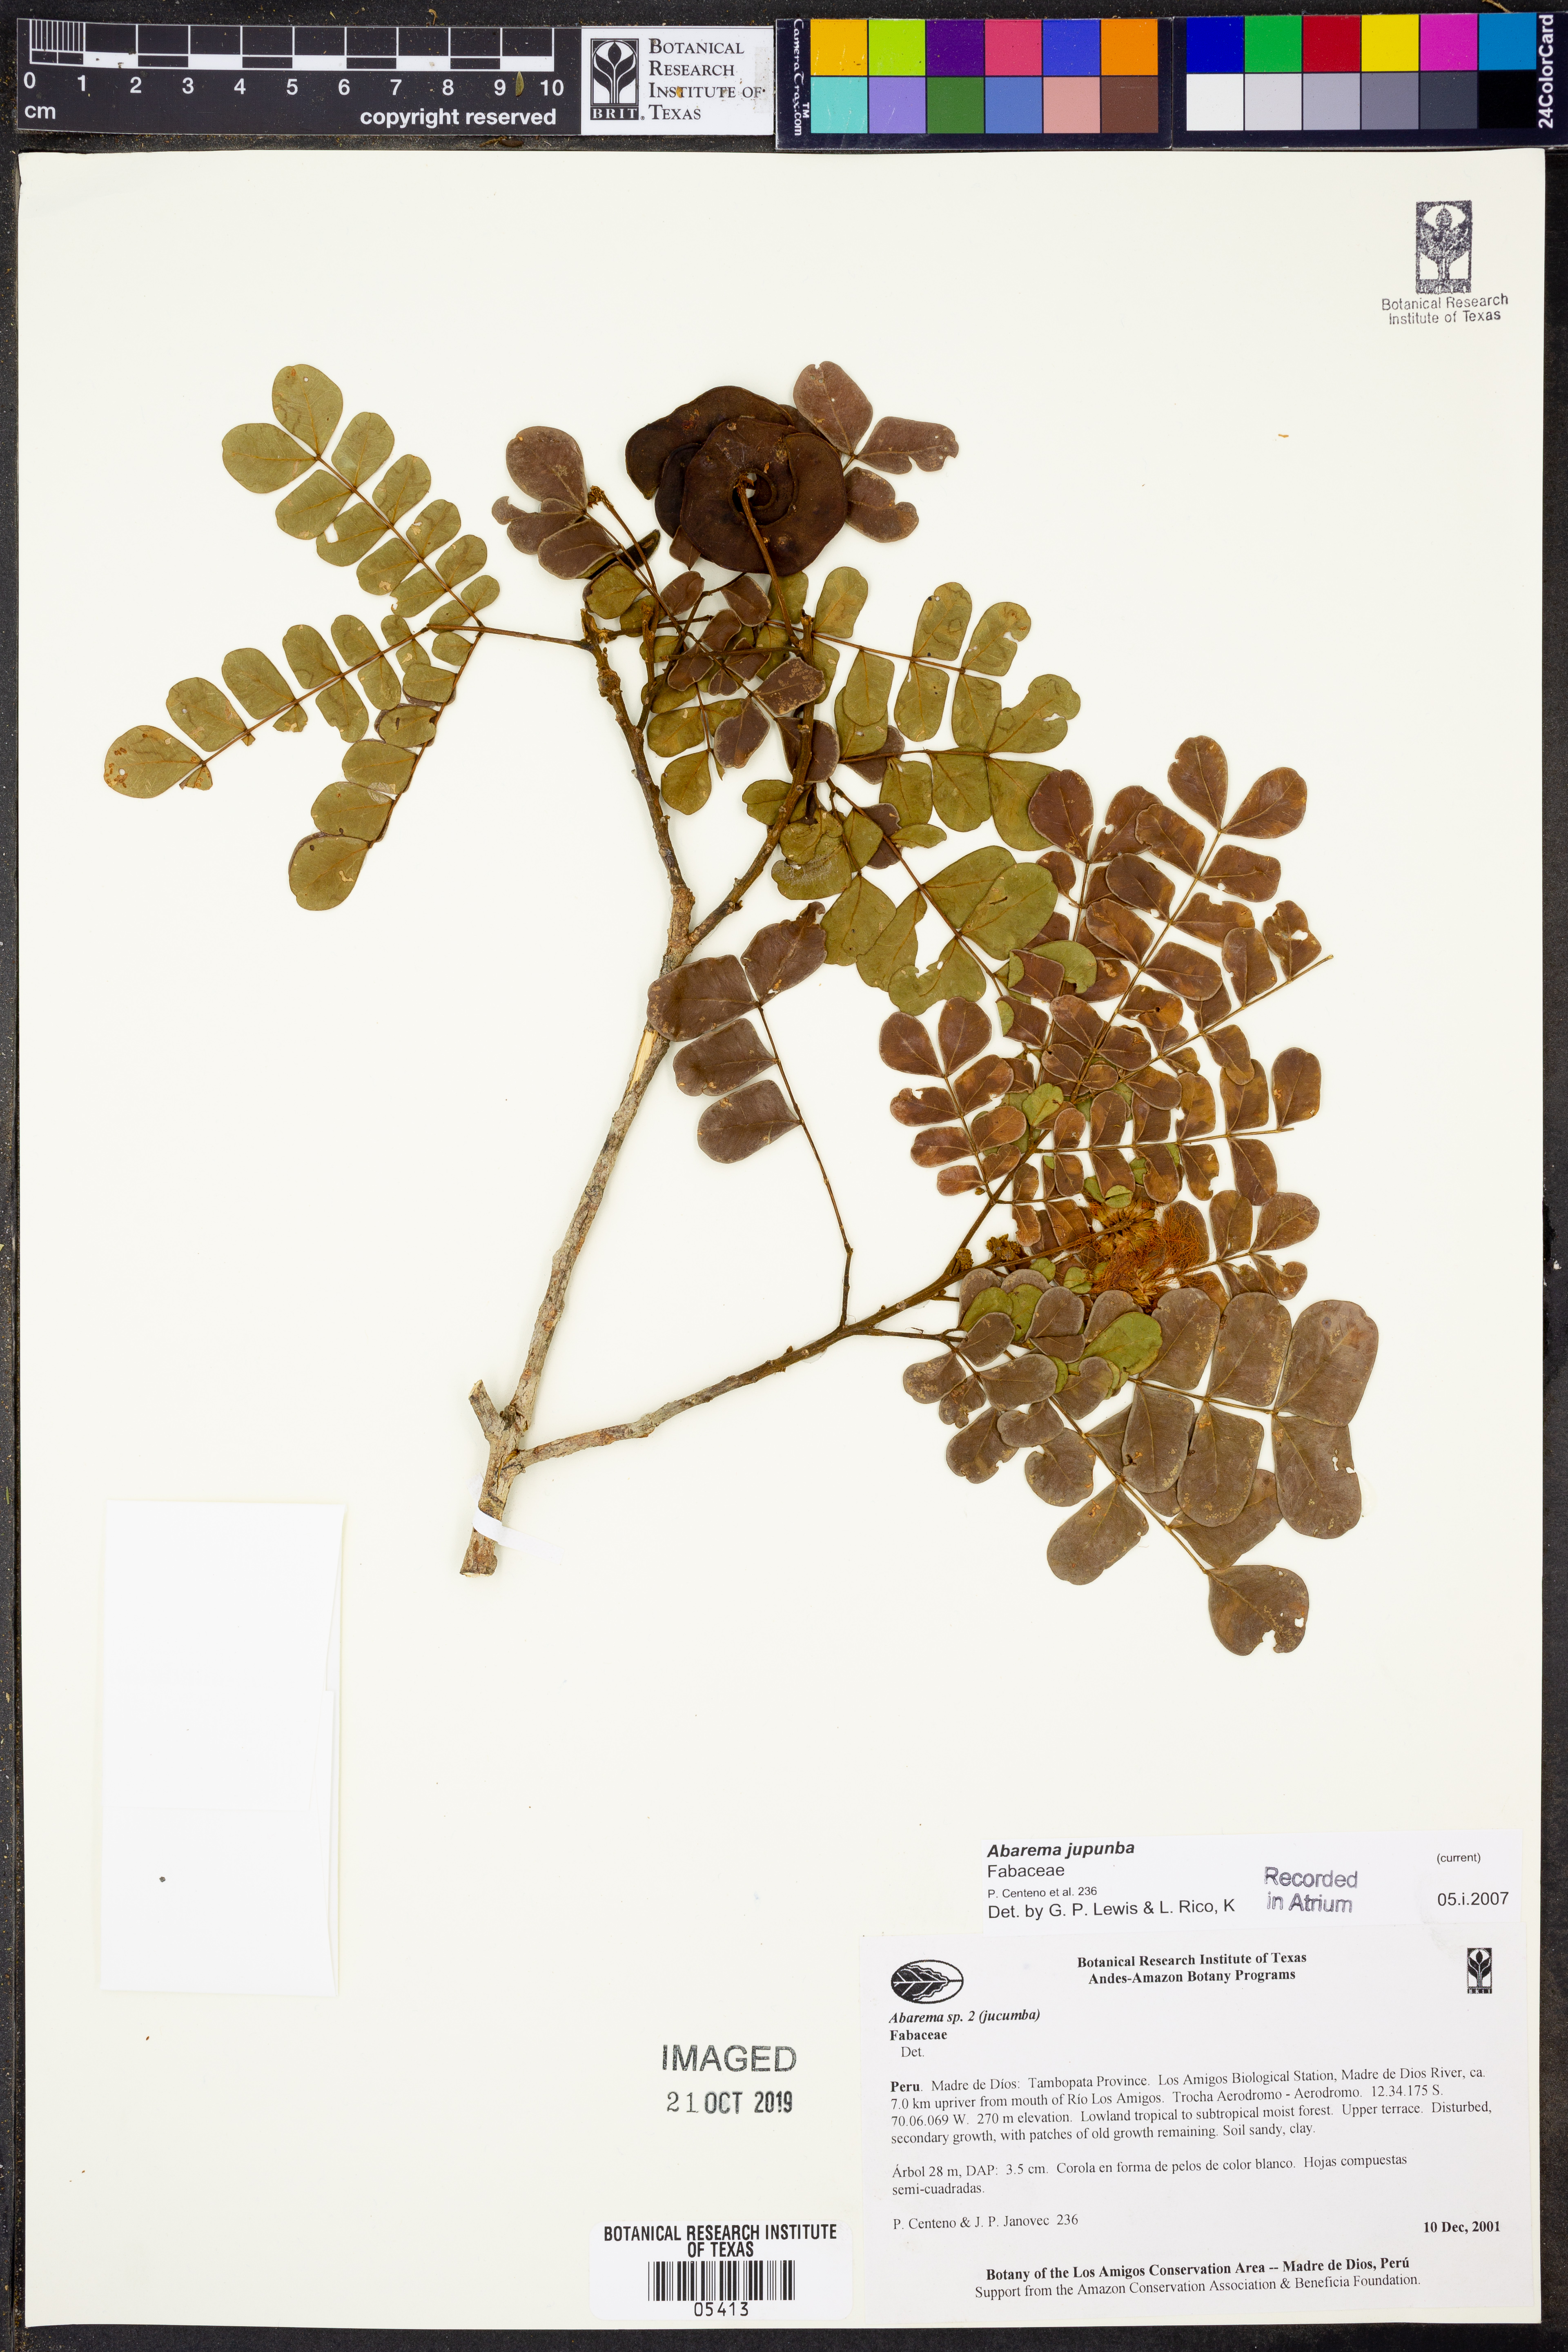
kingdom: Plantae
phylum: Tracheophyta
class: Magnoliopsida
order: Fabales
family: Fabaceae
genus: Abarema
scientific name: Abarema
